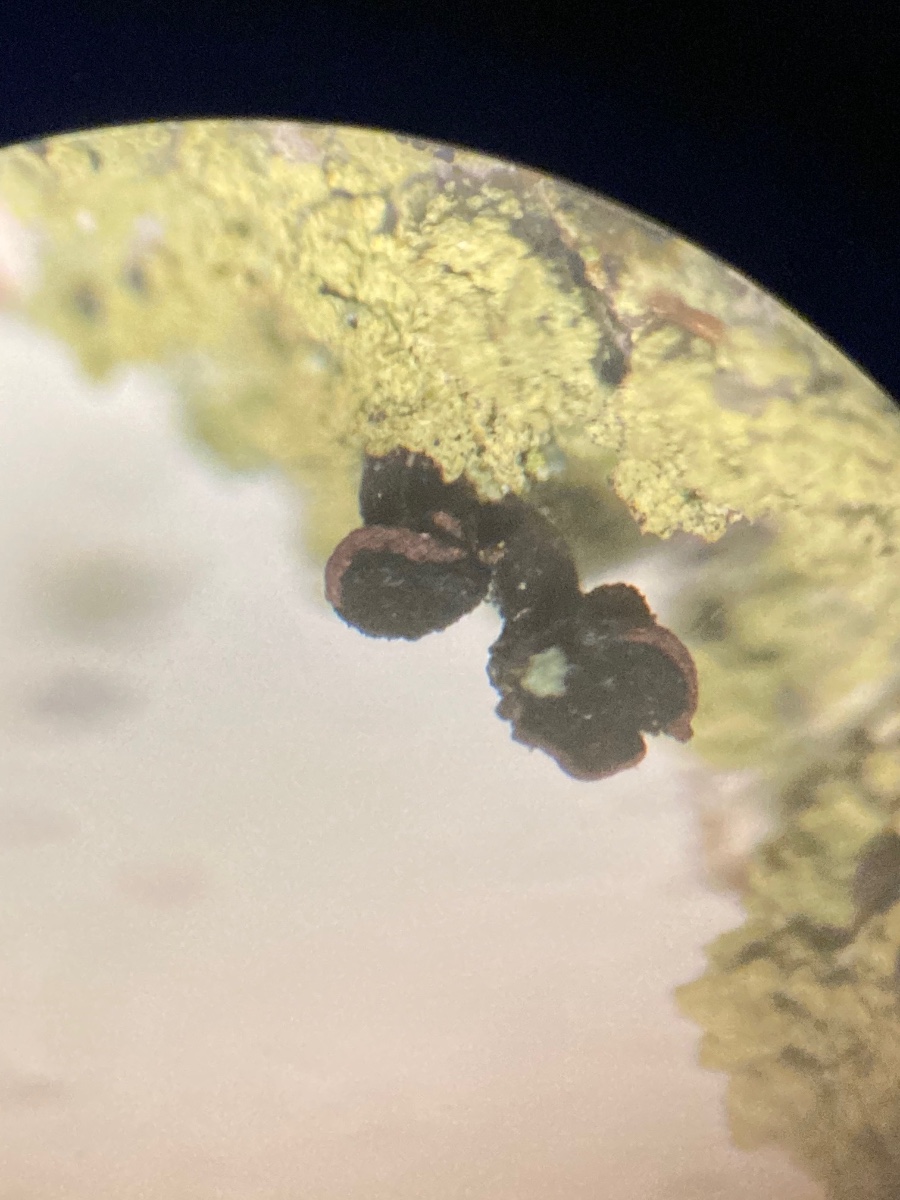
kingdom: Fungi
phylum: Ascomycota
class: Lecanoromycetes
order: Caliciales
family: Caliciaceae
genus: Calicium
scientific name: Calicium viride
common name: gulgrøn nålelav
